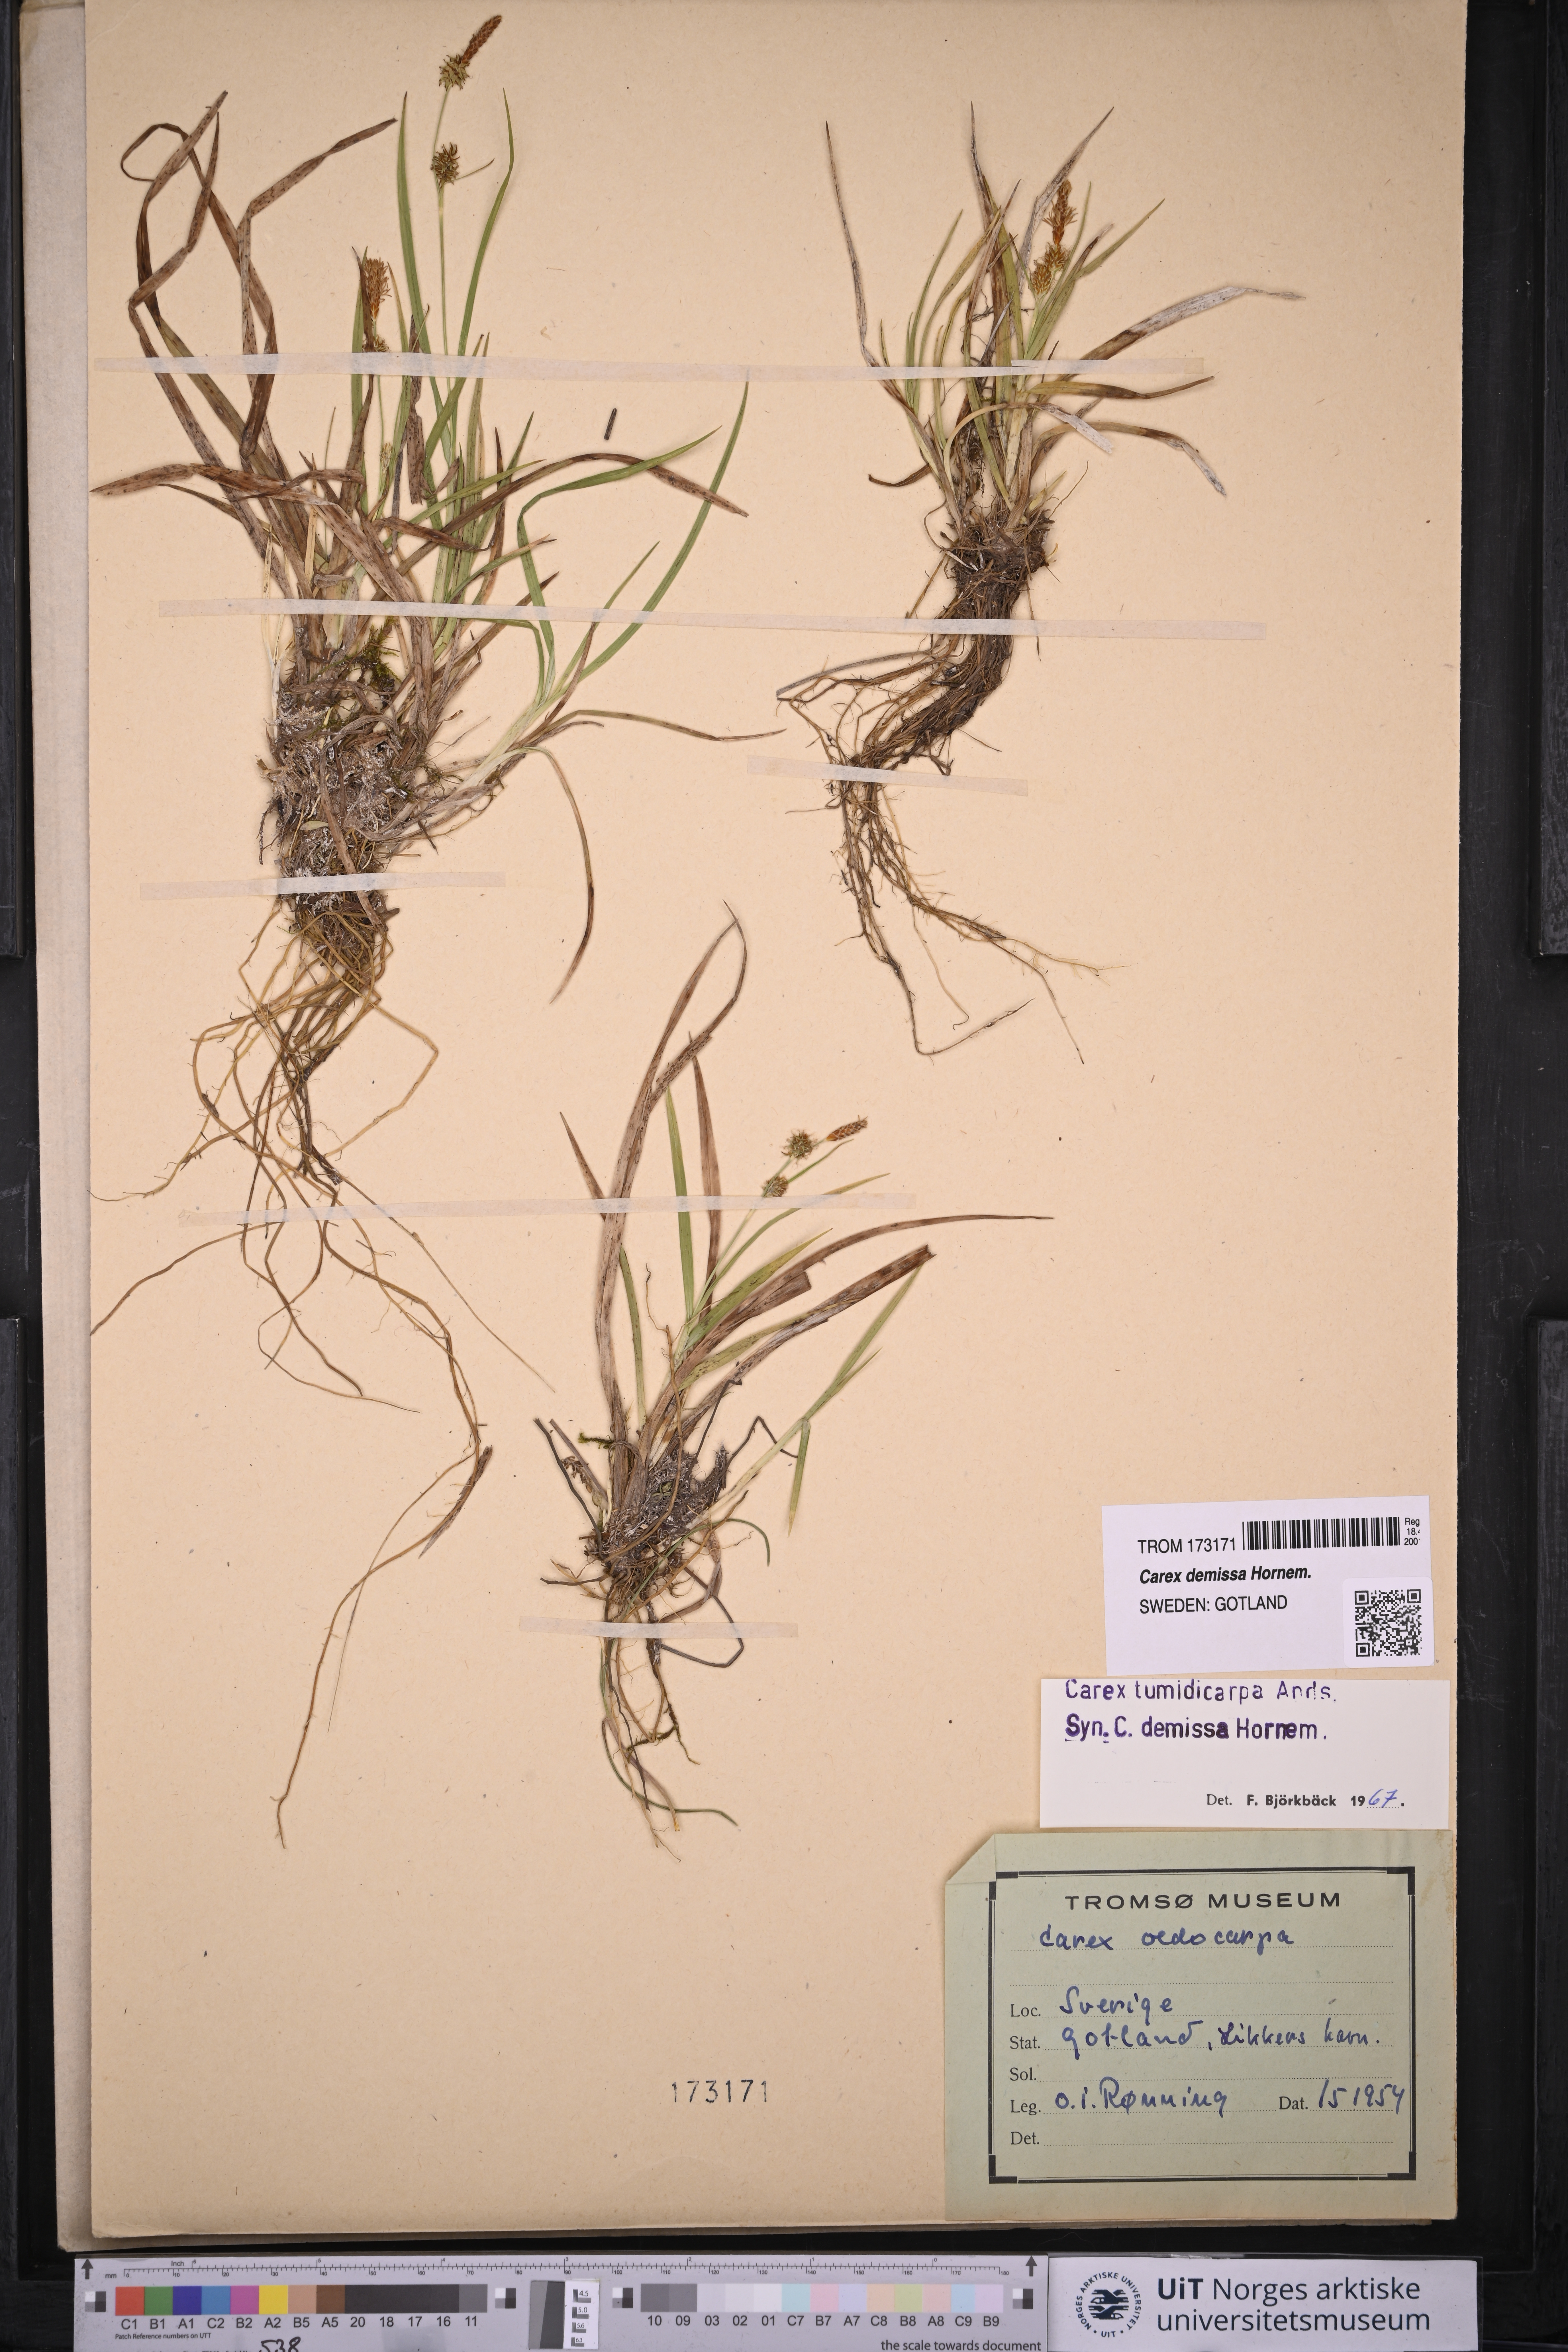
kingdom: Plantae
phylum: Tracheophyta
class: Liliopsida
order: Poales
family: Cyperaceae
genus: Carex
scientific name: Carex demissa
